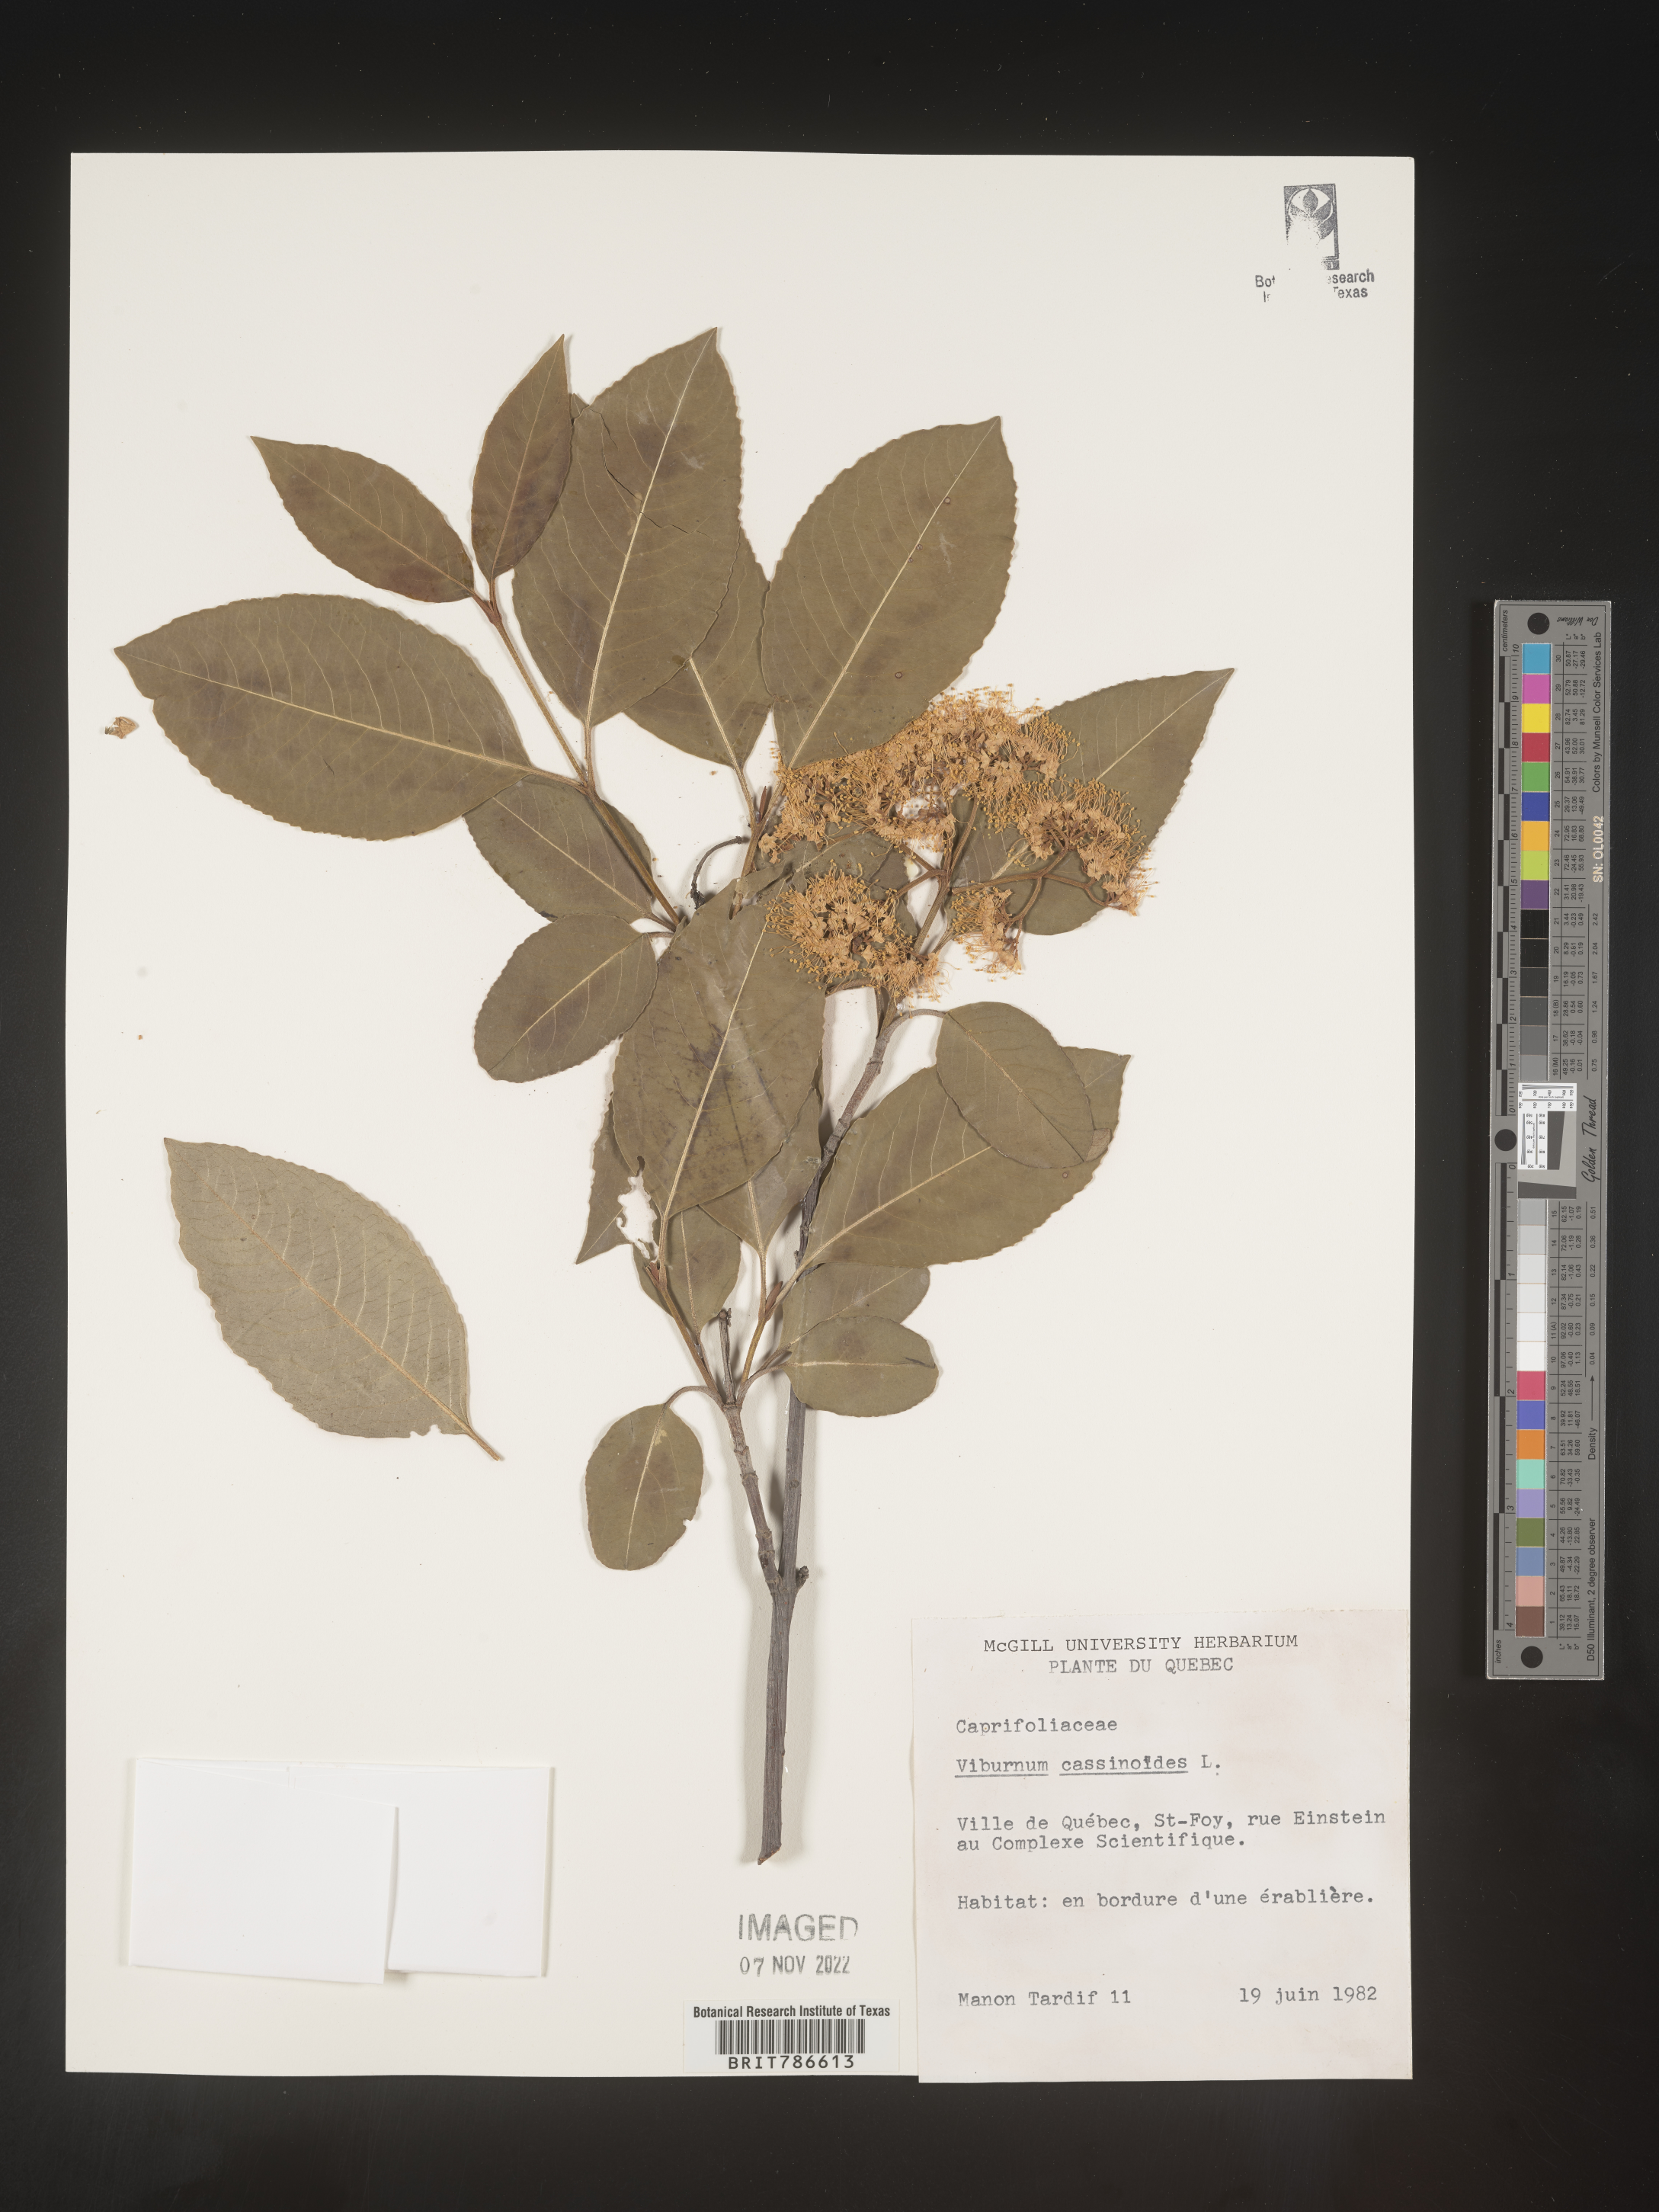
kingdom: Plantae
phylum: Tracheophyta
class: Magnoliopsida
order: Dipsacales
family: Viburnaceae
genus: Viburnum
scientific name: Viburnum cassinoides
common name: Swamp haw
